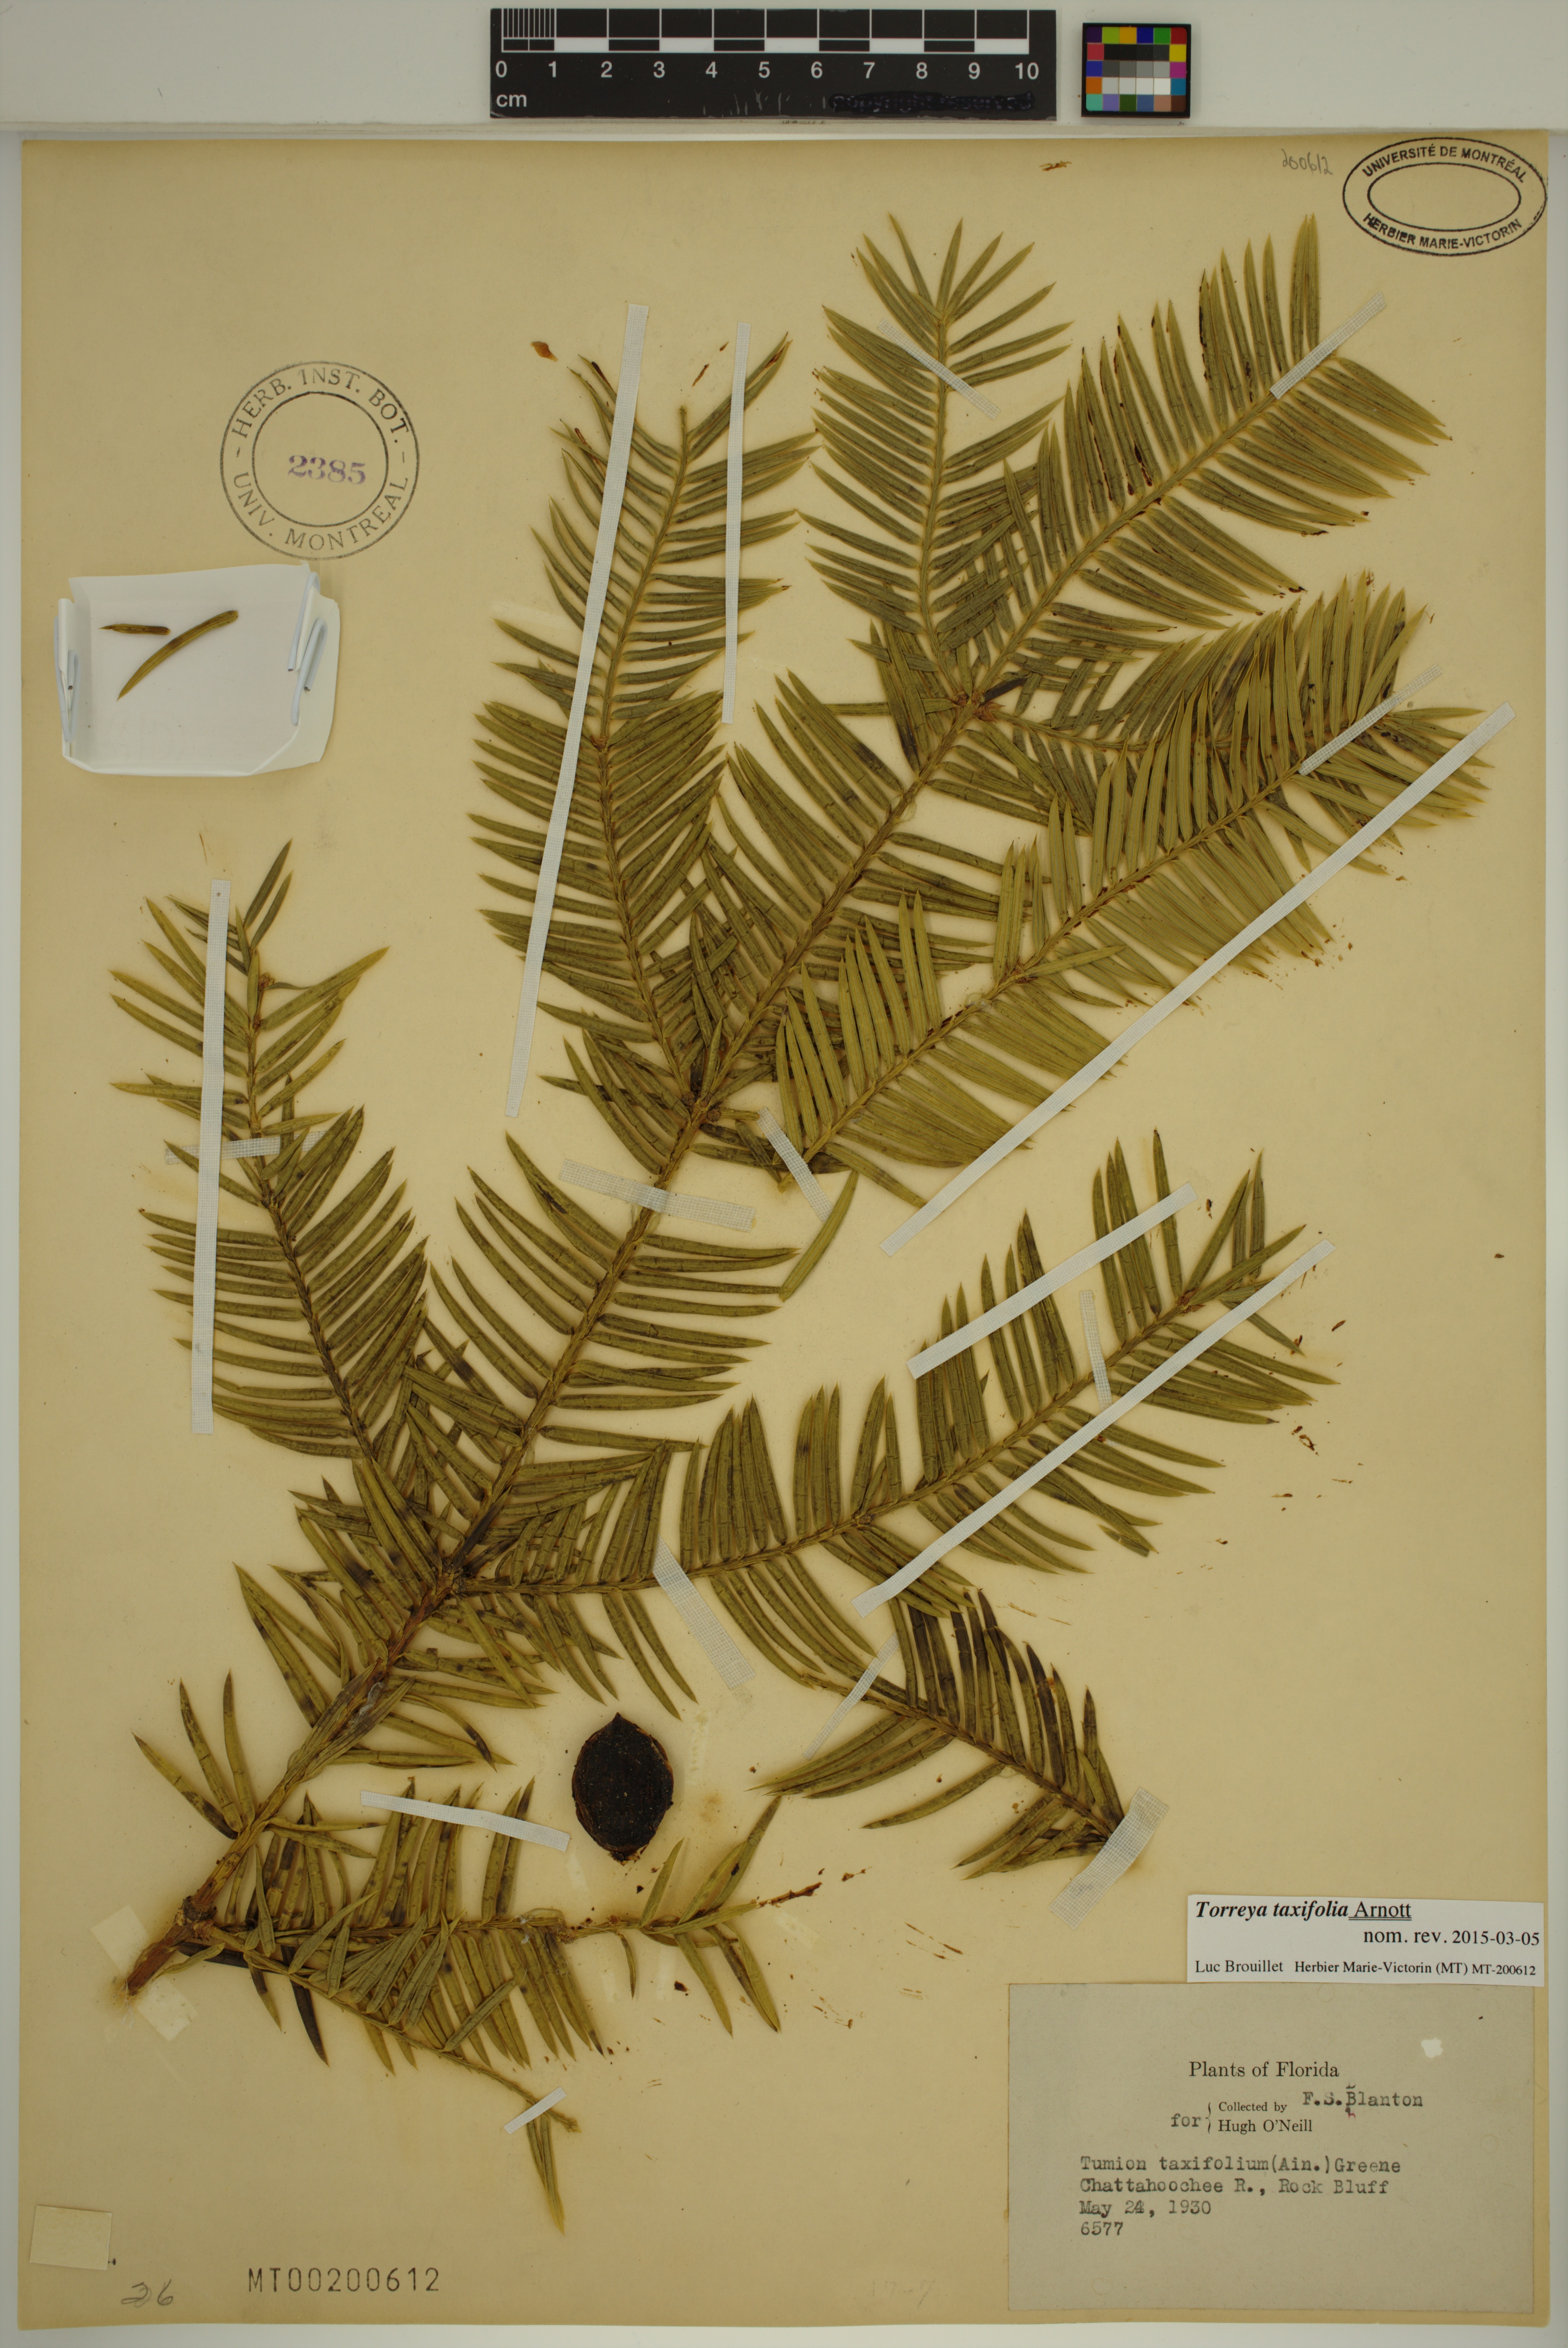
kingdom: Plantae
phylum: Tracheophyta
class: Pinopsida
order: Pinales
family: Taxaceae
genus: Torreya
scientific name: Torreya taxifolia
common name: Florida torreya
